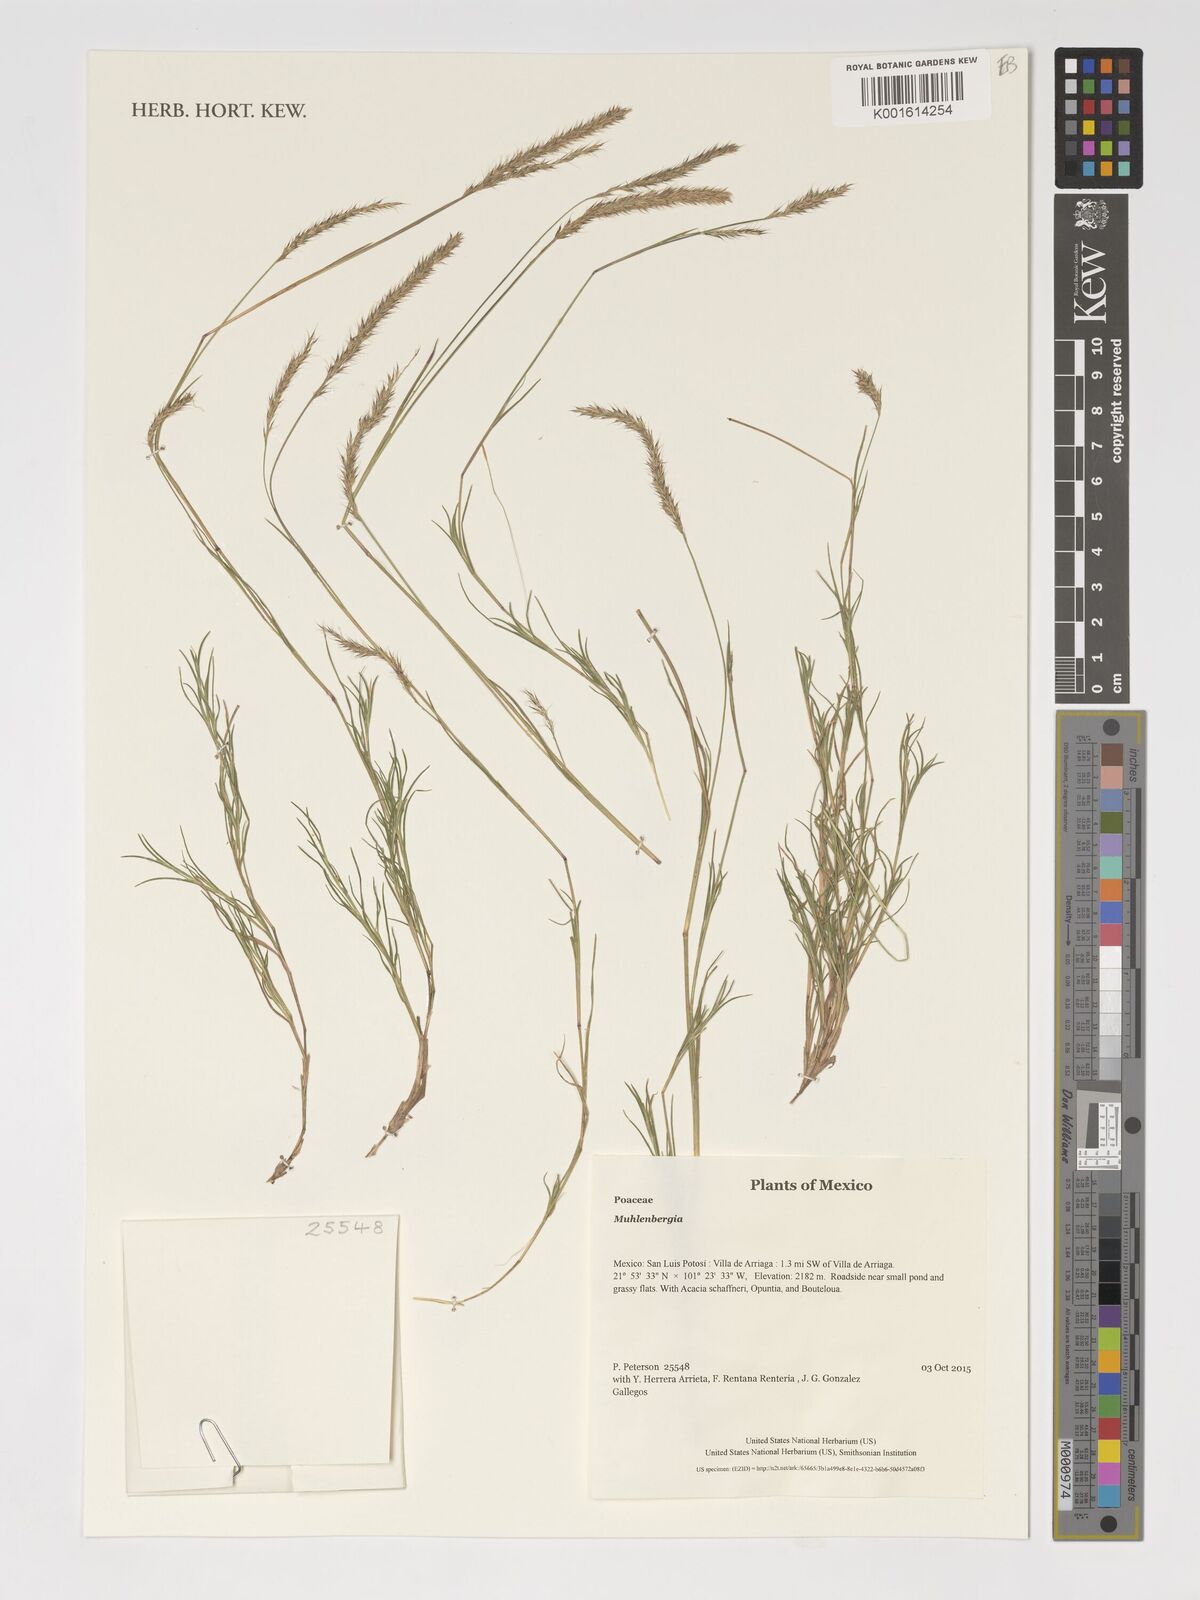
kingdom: Plantae
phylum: Tracheophyta
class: Liliopsida
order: Poales
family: Poaceae
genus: Muhlenbergia
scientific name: Muhlenbergia
